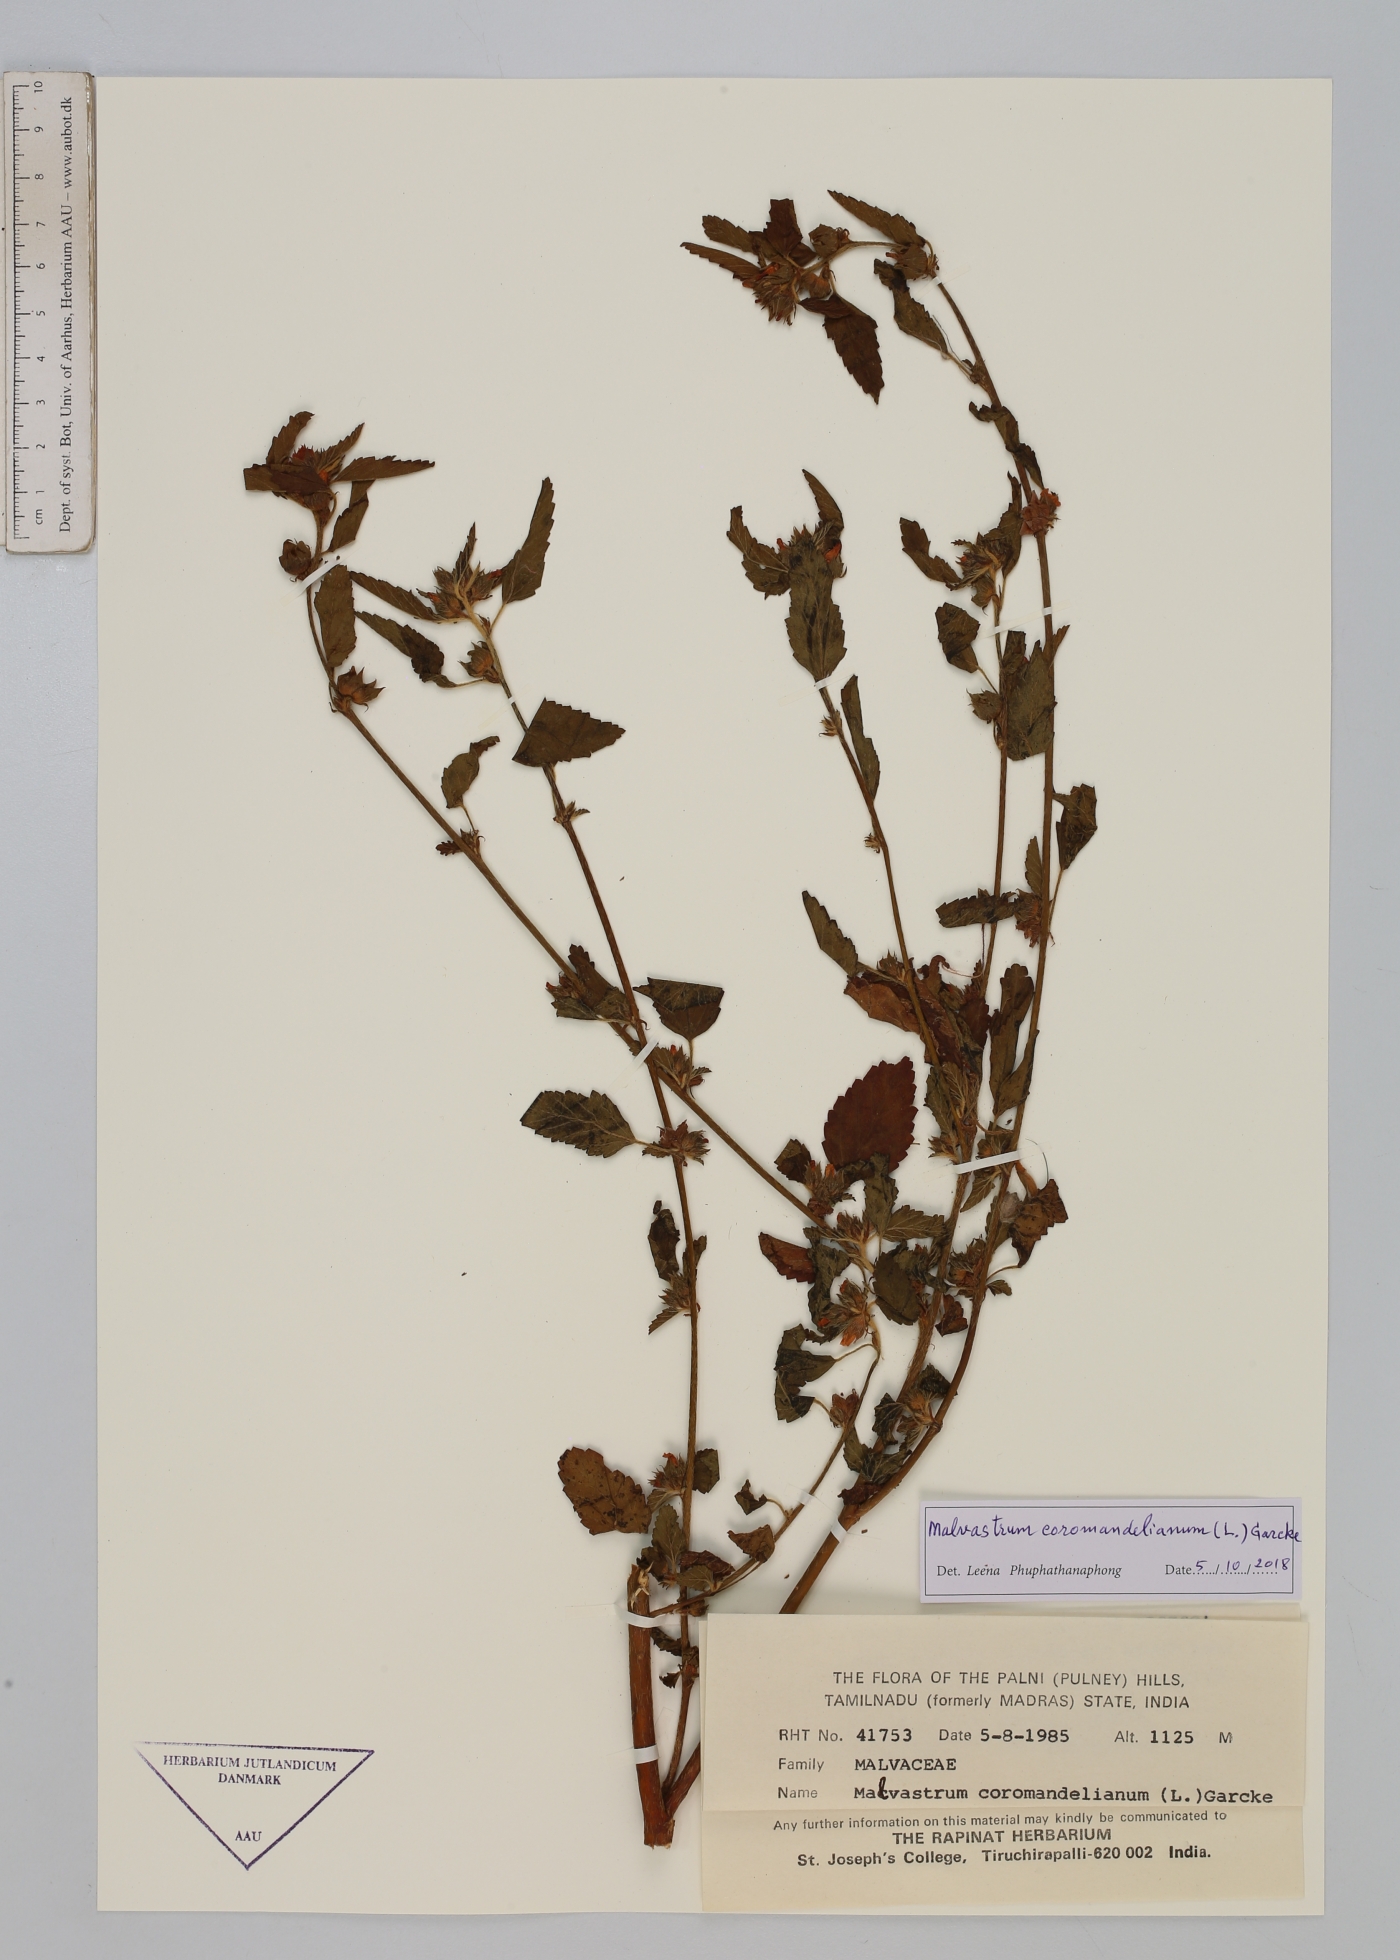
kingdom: Plantae
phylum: Tracheophyta
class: Magnoliopsida
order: Malvales
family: Malvaceae
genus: Malvastrum
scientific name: Malvastrum coromandelianum
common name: Threelobe false mallow
